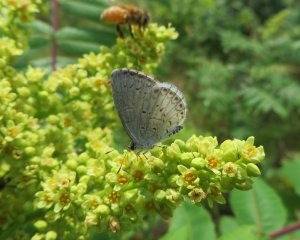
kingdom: Animalia
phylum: Arthropoda
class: Insecta
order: Lepidoptera
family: Lycaenidae
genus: Cyaniris
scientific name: Cyaniris neglecta
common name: Summer Azure
